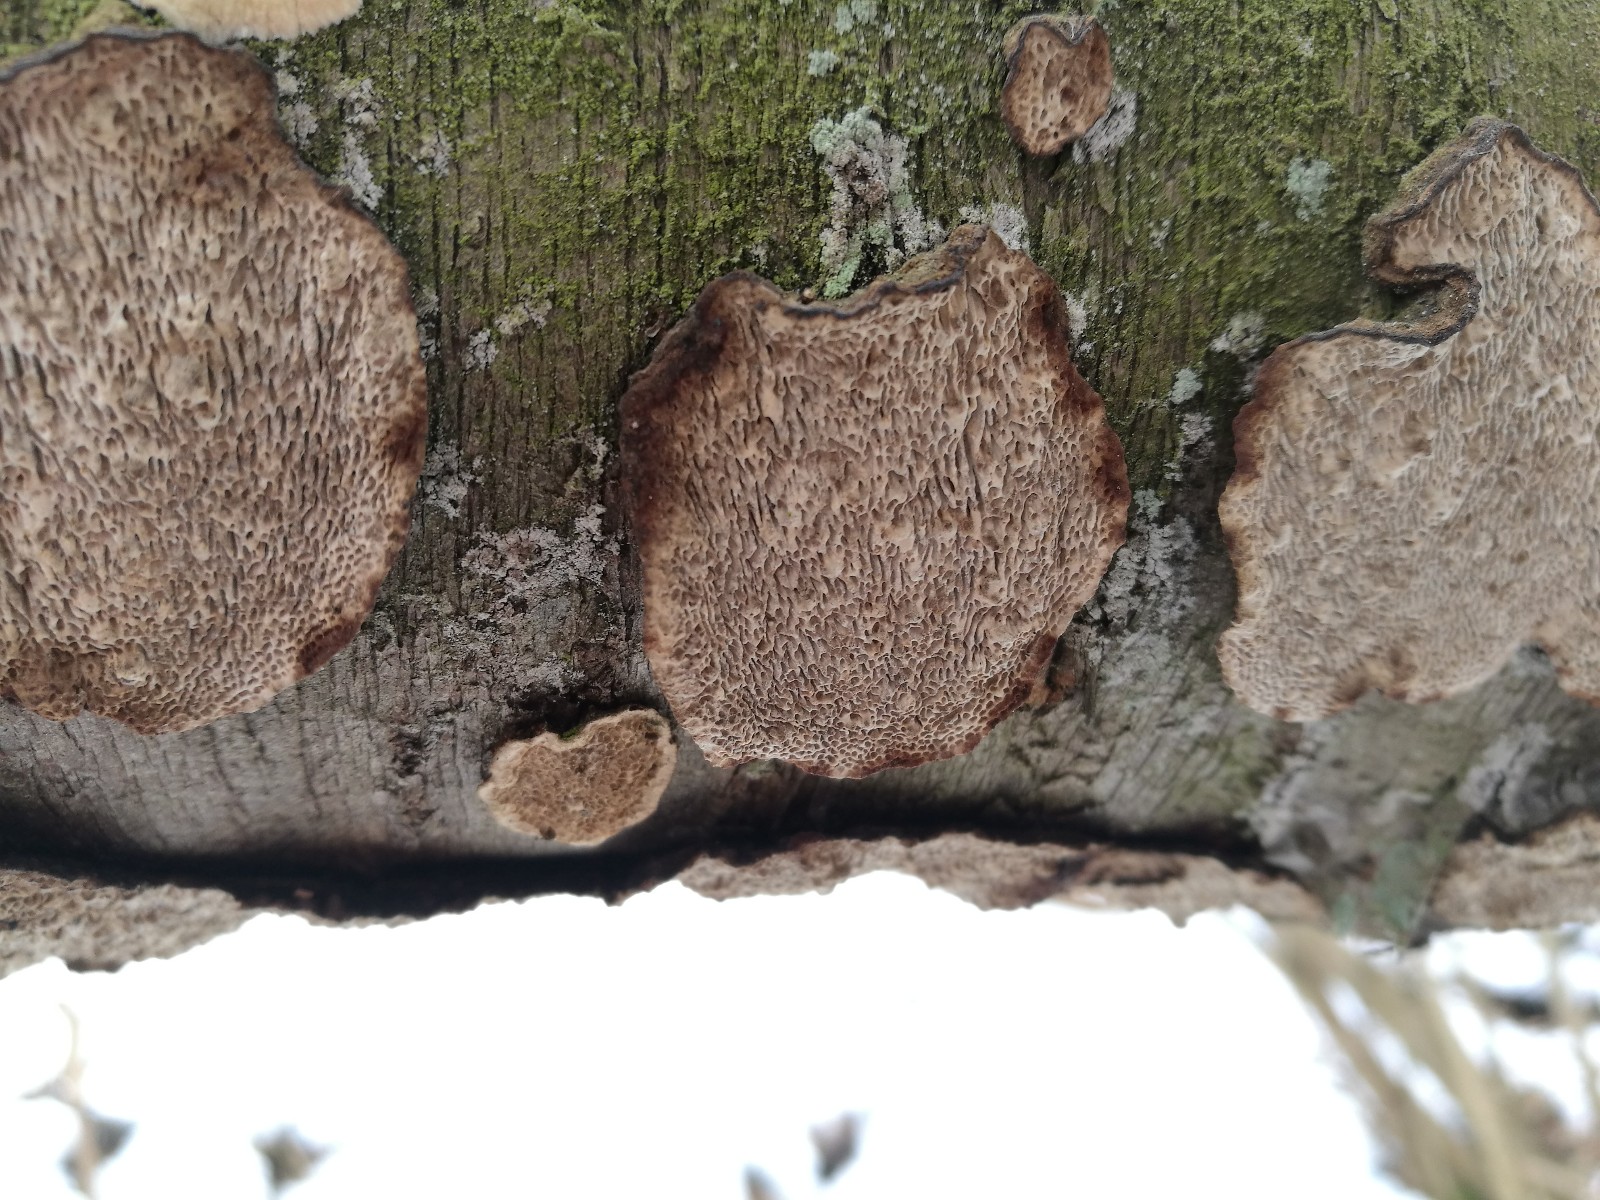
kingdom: Fungi
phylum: Basidiomycota
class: Agaricomycetes
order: Polyporales
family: Polyporaceae
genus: Podofomes
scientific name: Podofomes mollis
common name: blød begporesvamp
